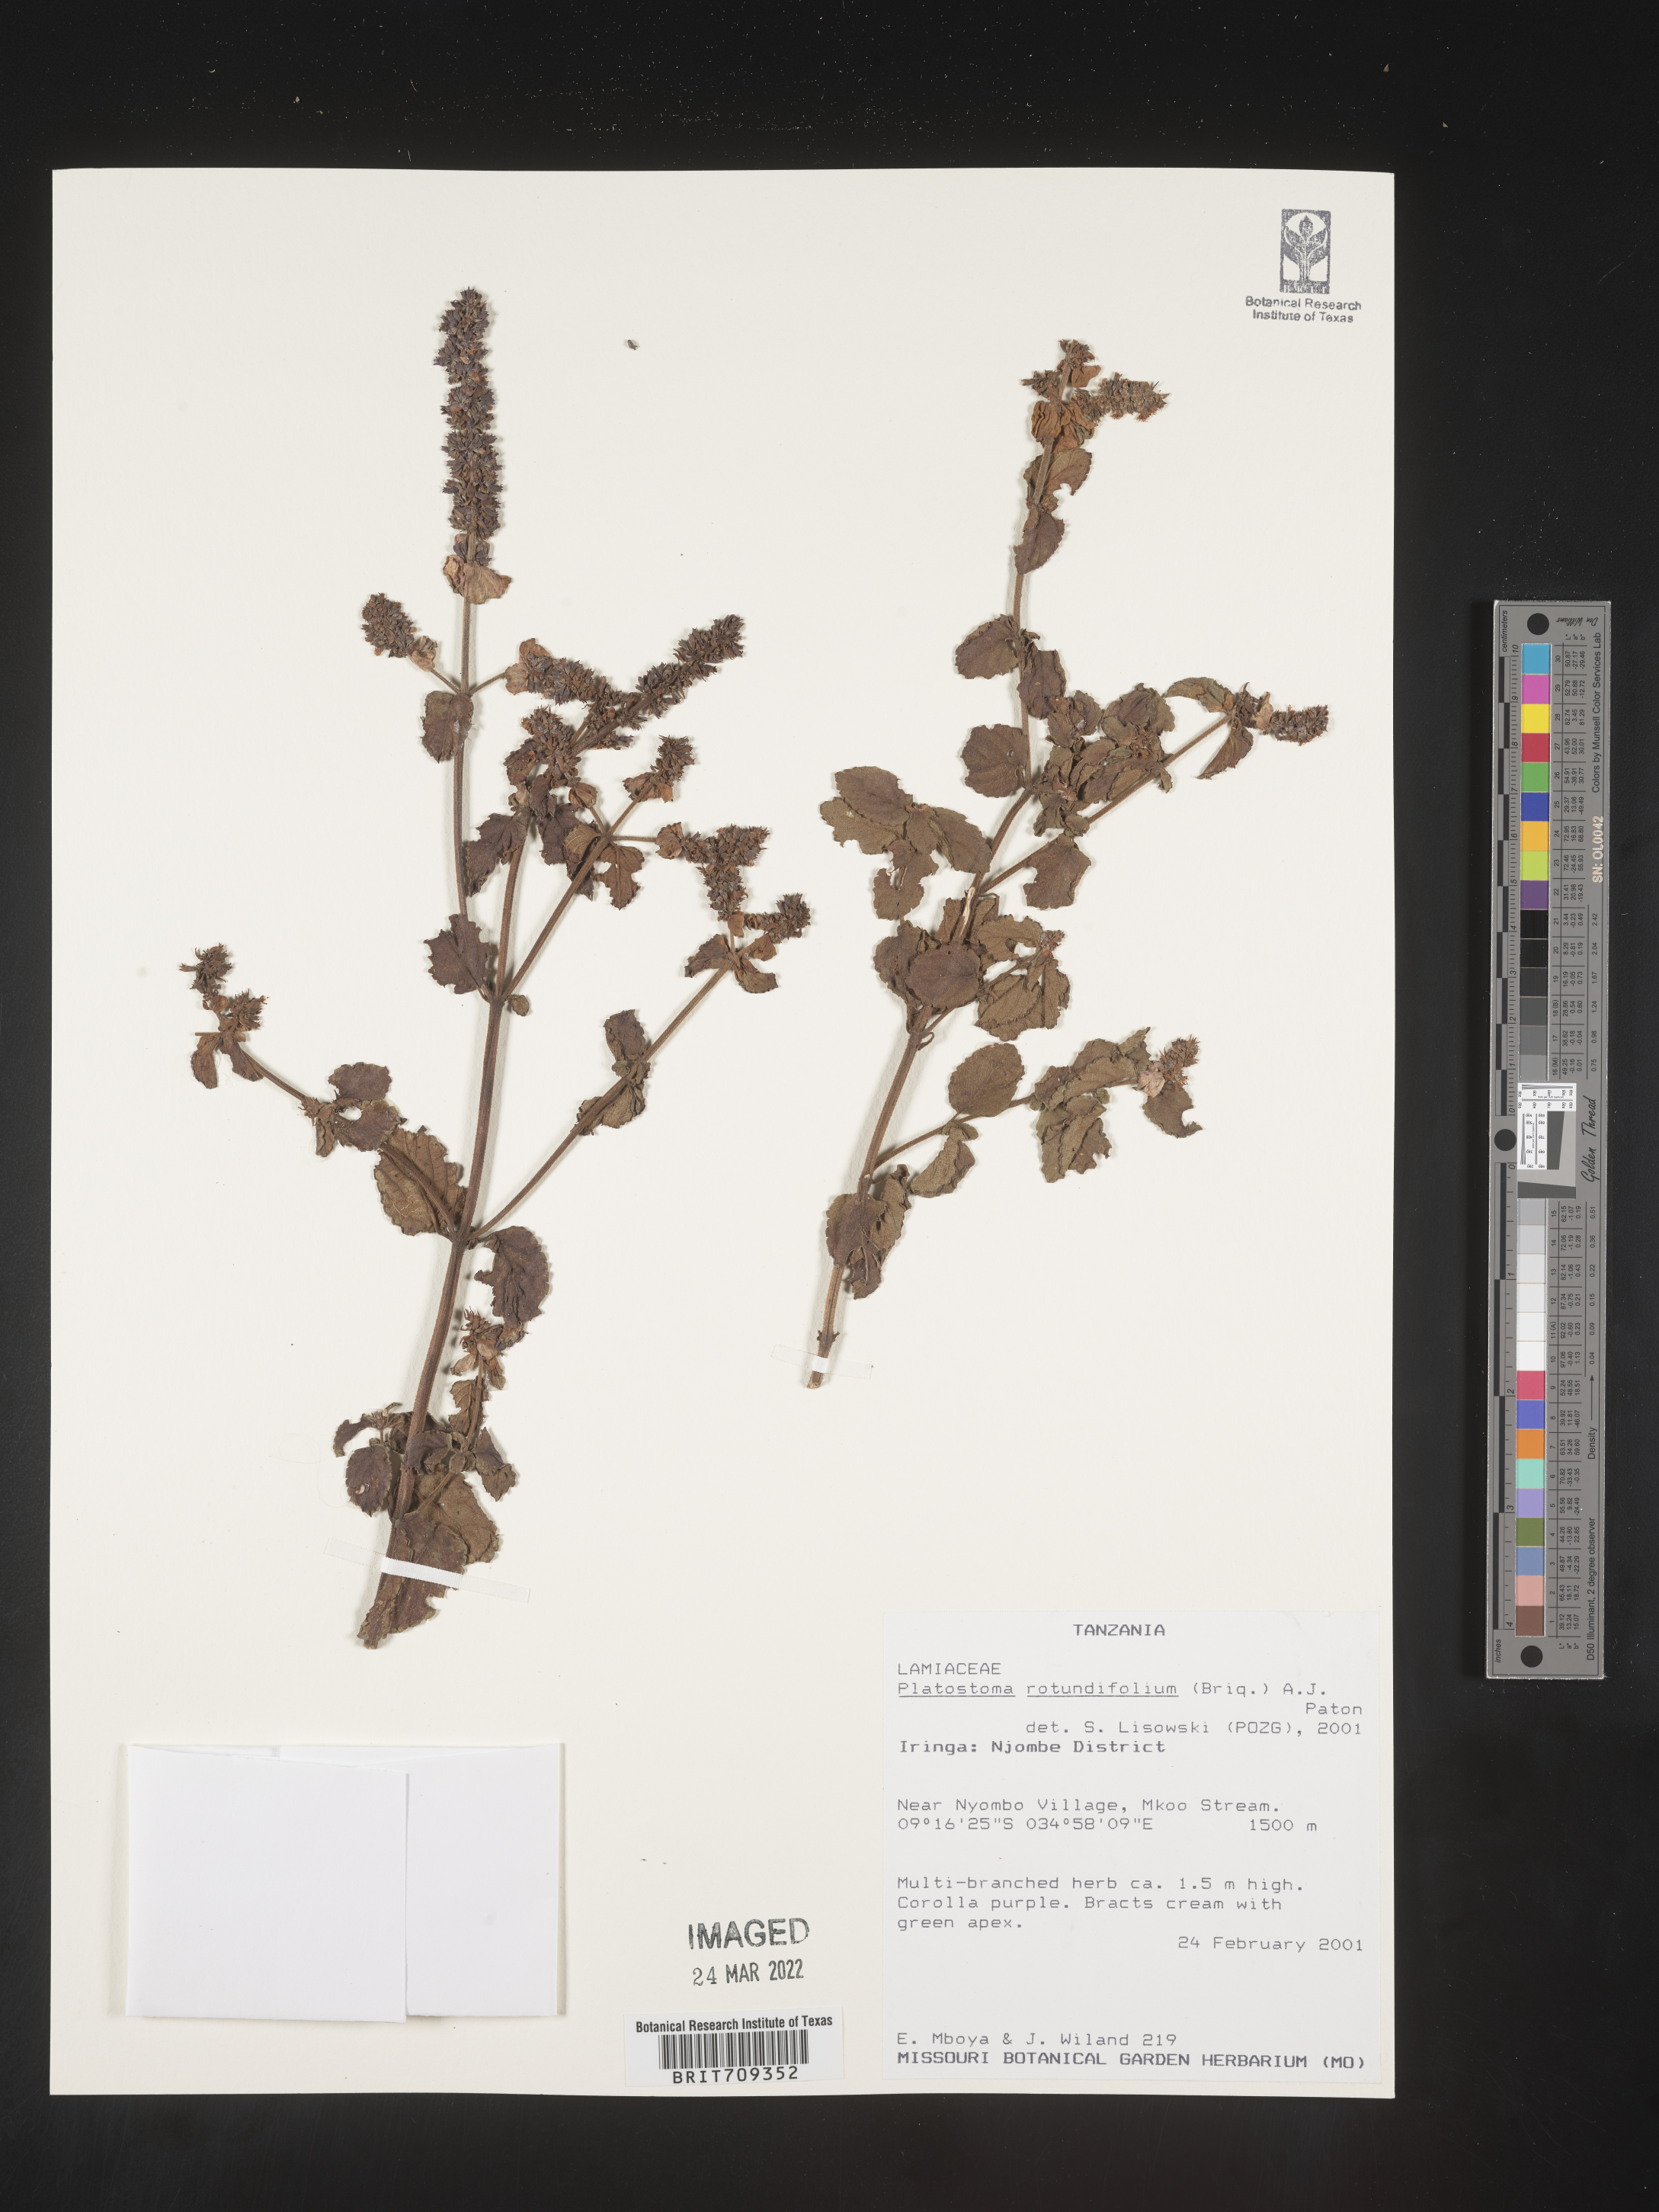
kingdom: Plantae
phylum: Tracheophyta
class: Magnoliopsida
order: Lamiales
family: Lamiaceae
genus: Platystoma
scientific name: Platystoma
